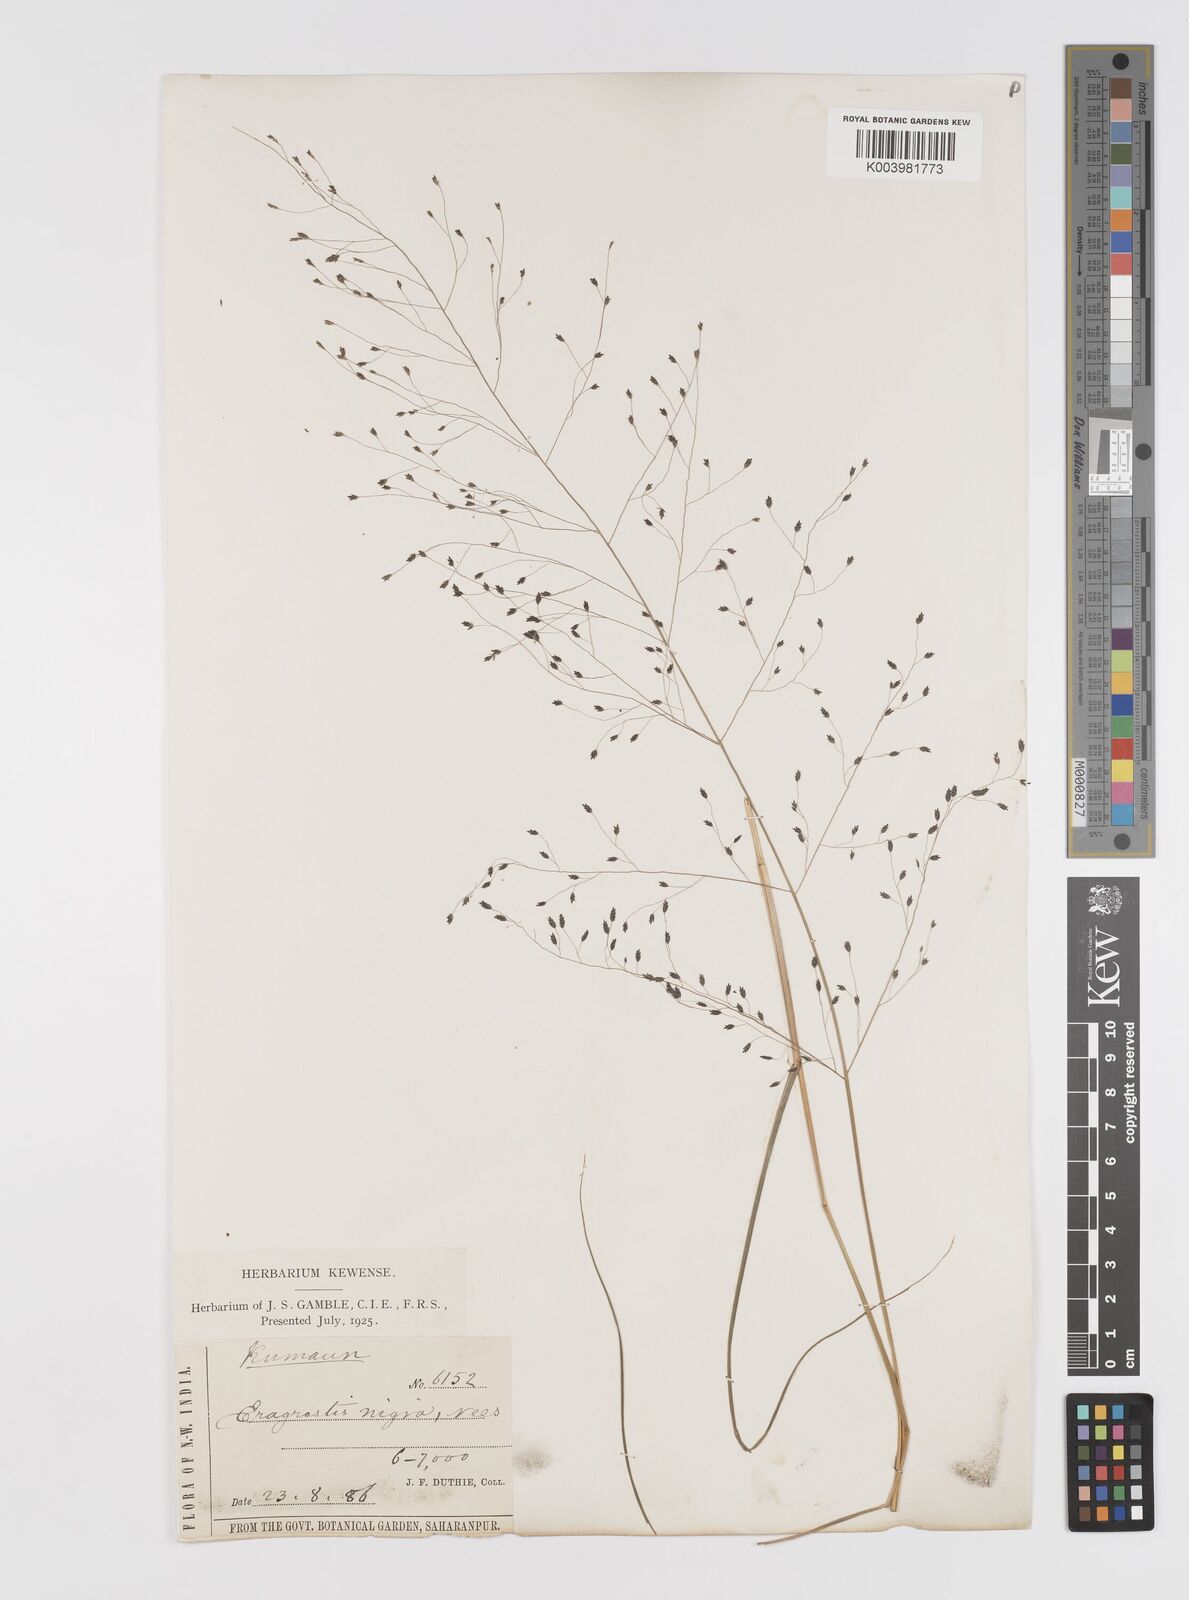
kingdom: Plantae
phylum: Tracheophyta
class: Liliopsida
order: Poales
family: Poaceae
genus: Eragrostis
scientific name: Eragrostis nigra
